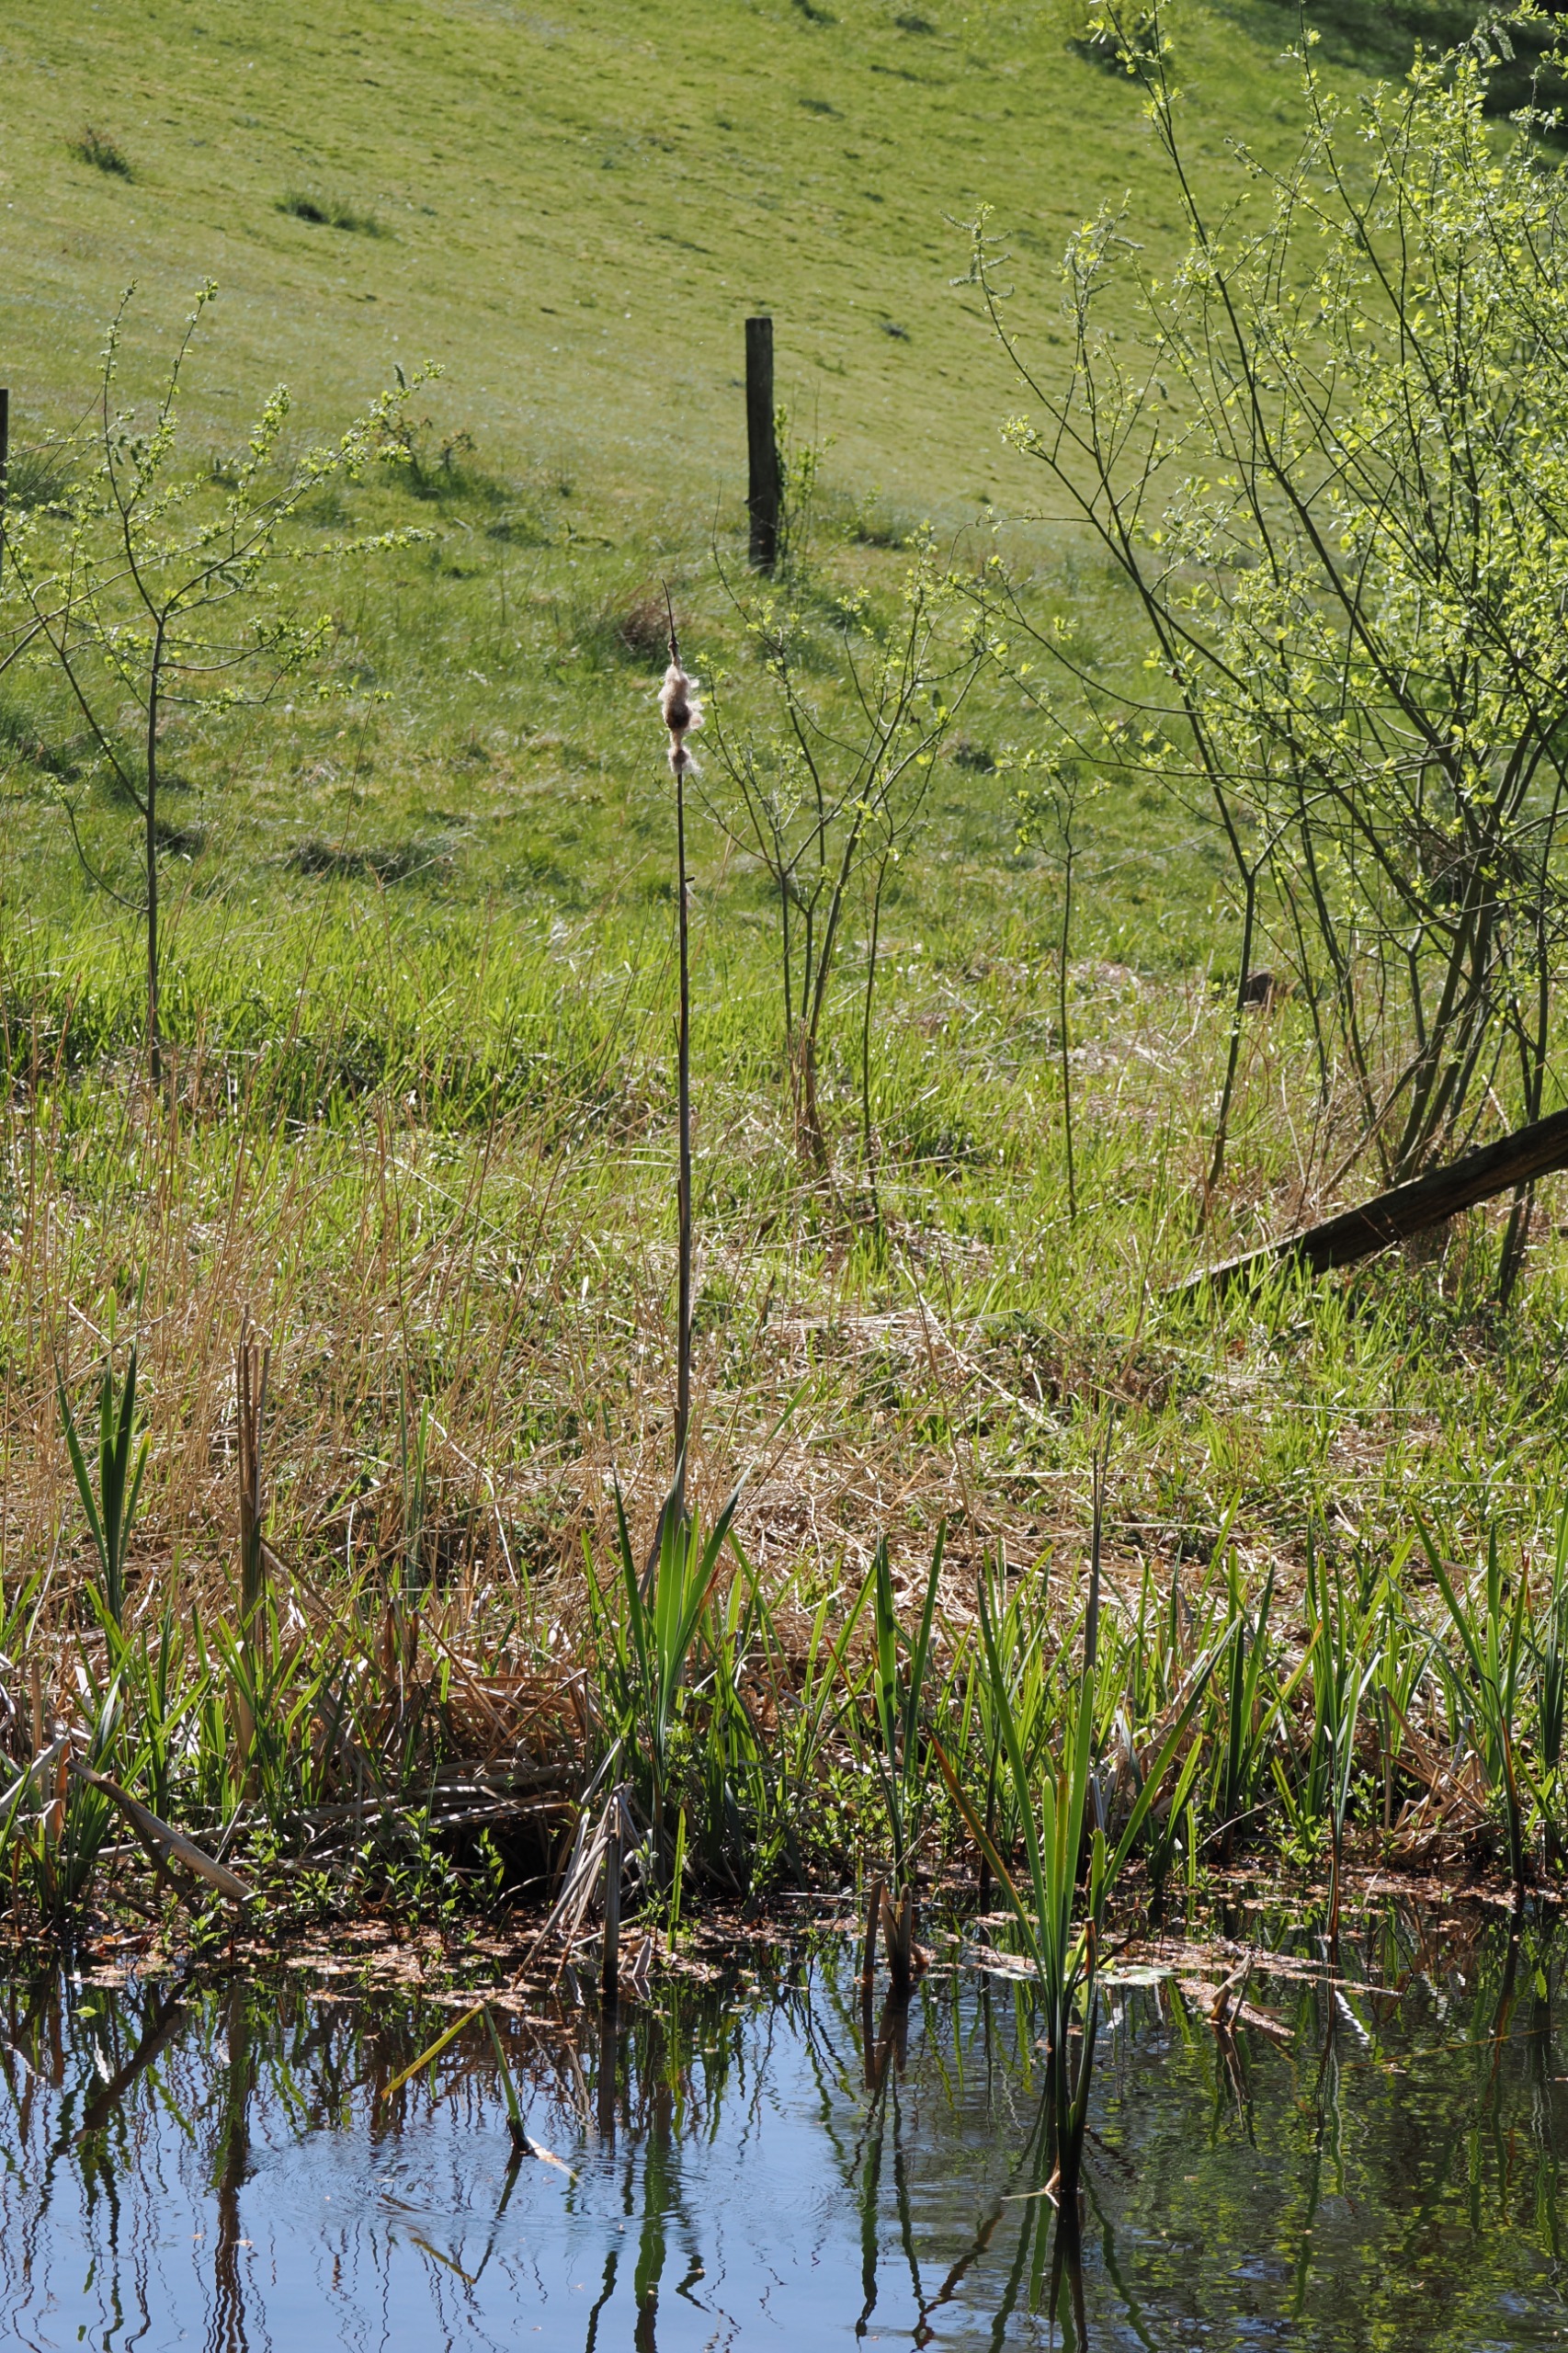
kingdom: Plantae
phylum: Tracheophyta
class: Liliopsida
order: Poales
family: Typhaceae
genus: Typha
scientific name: Typha latifolia
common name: Bredbladet dunhammer
